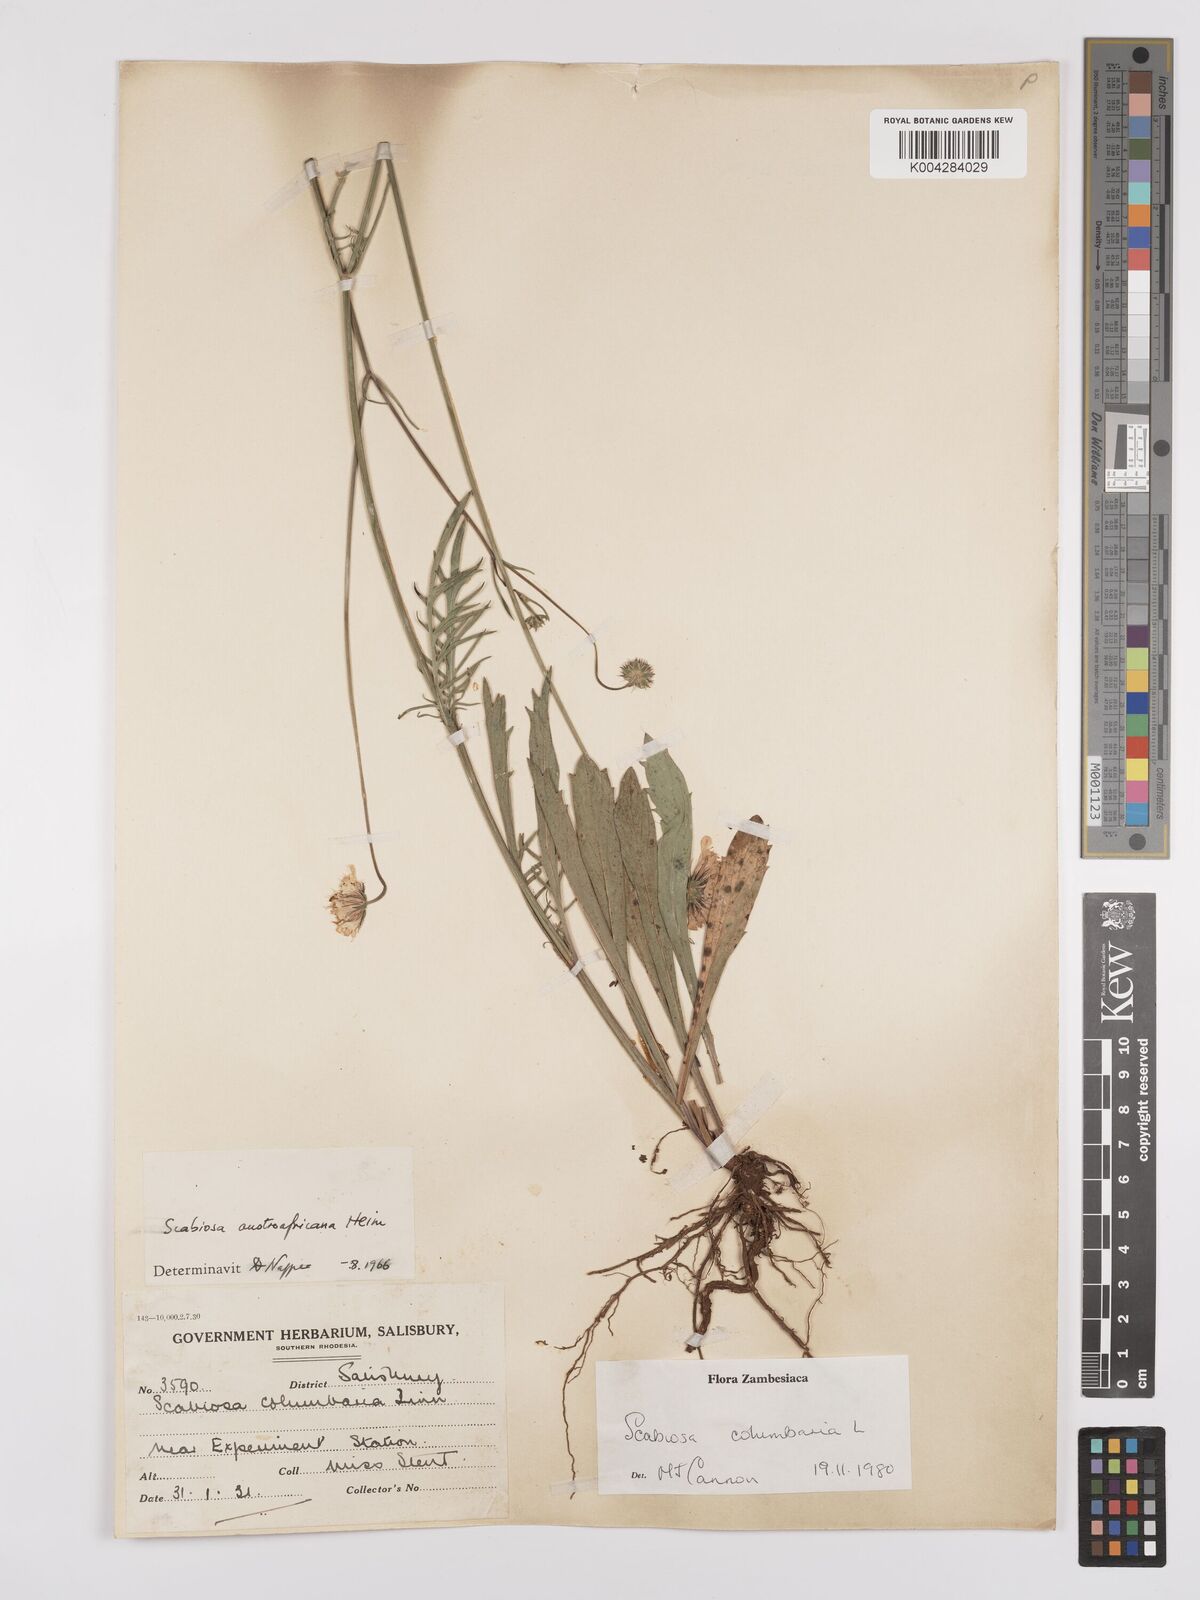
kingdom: Plantae
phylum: Tracheophyta
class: Magnoliopsida
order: Dipsacales
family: Caprifoliaceae
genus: Scabiosa
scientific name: Scabiosa austroafricana
